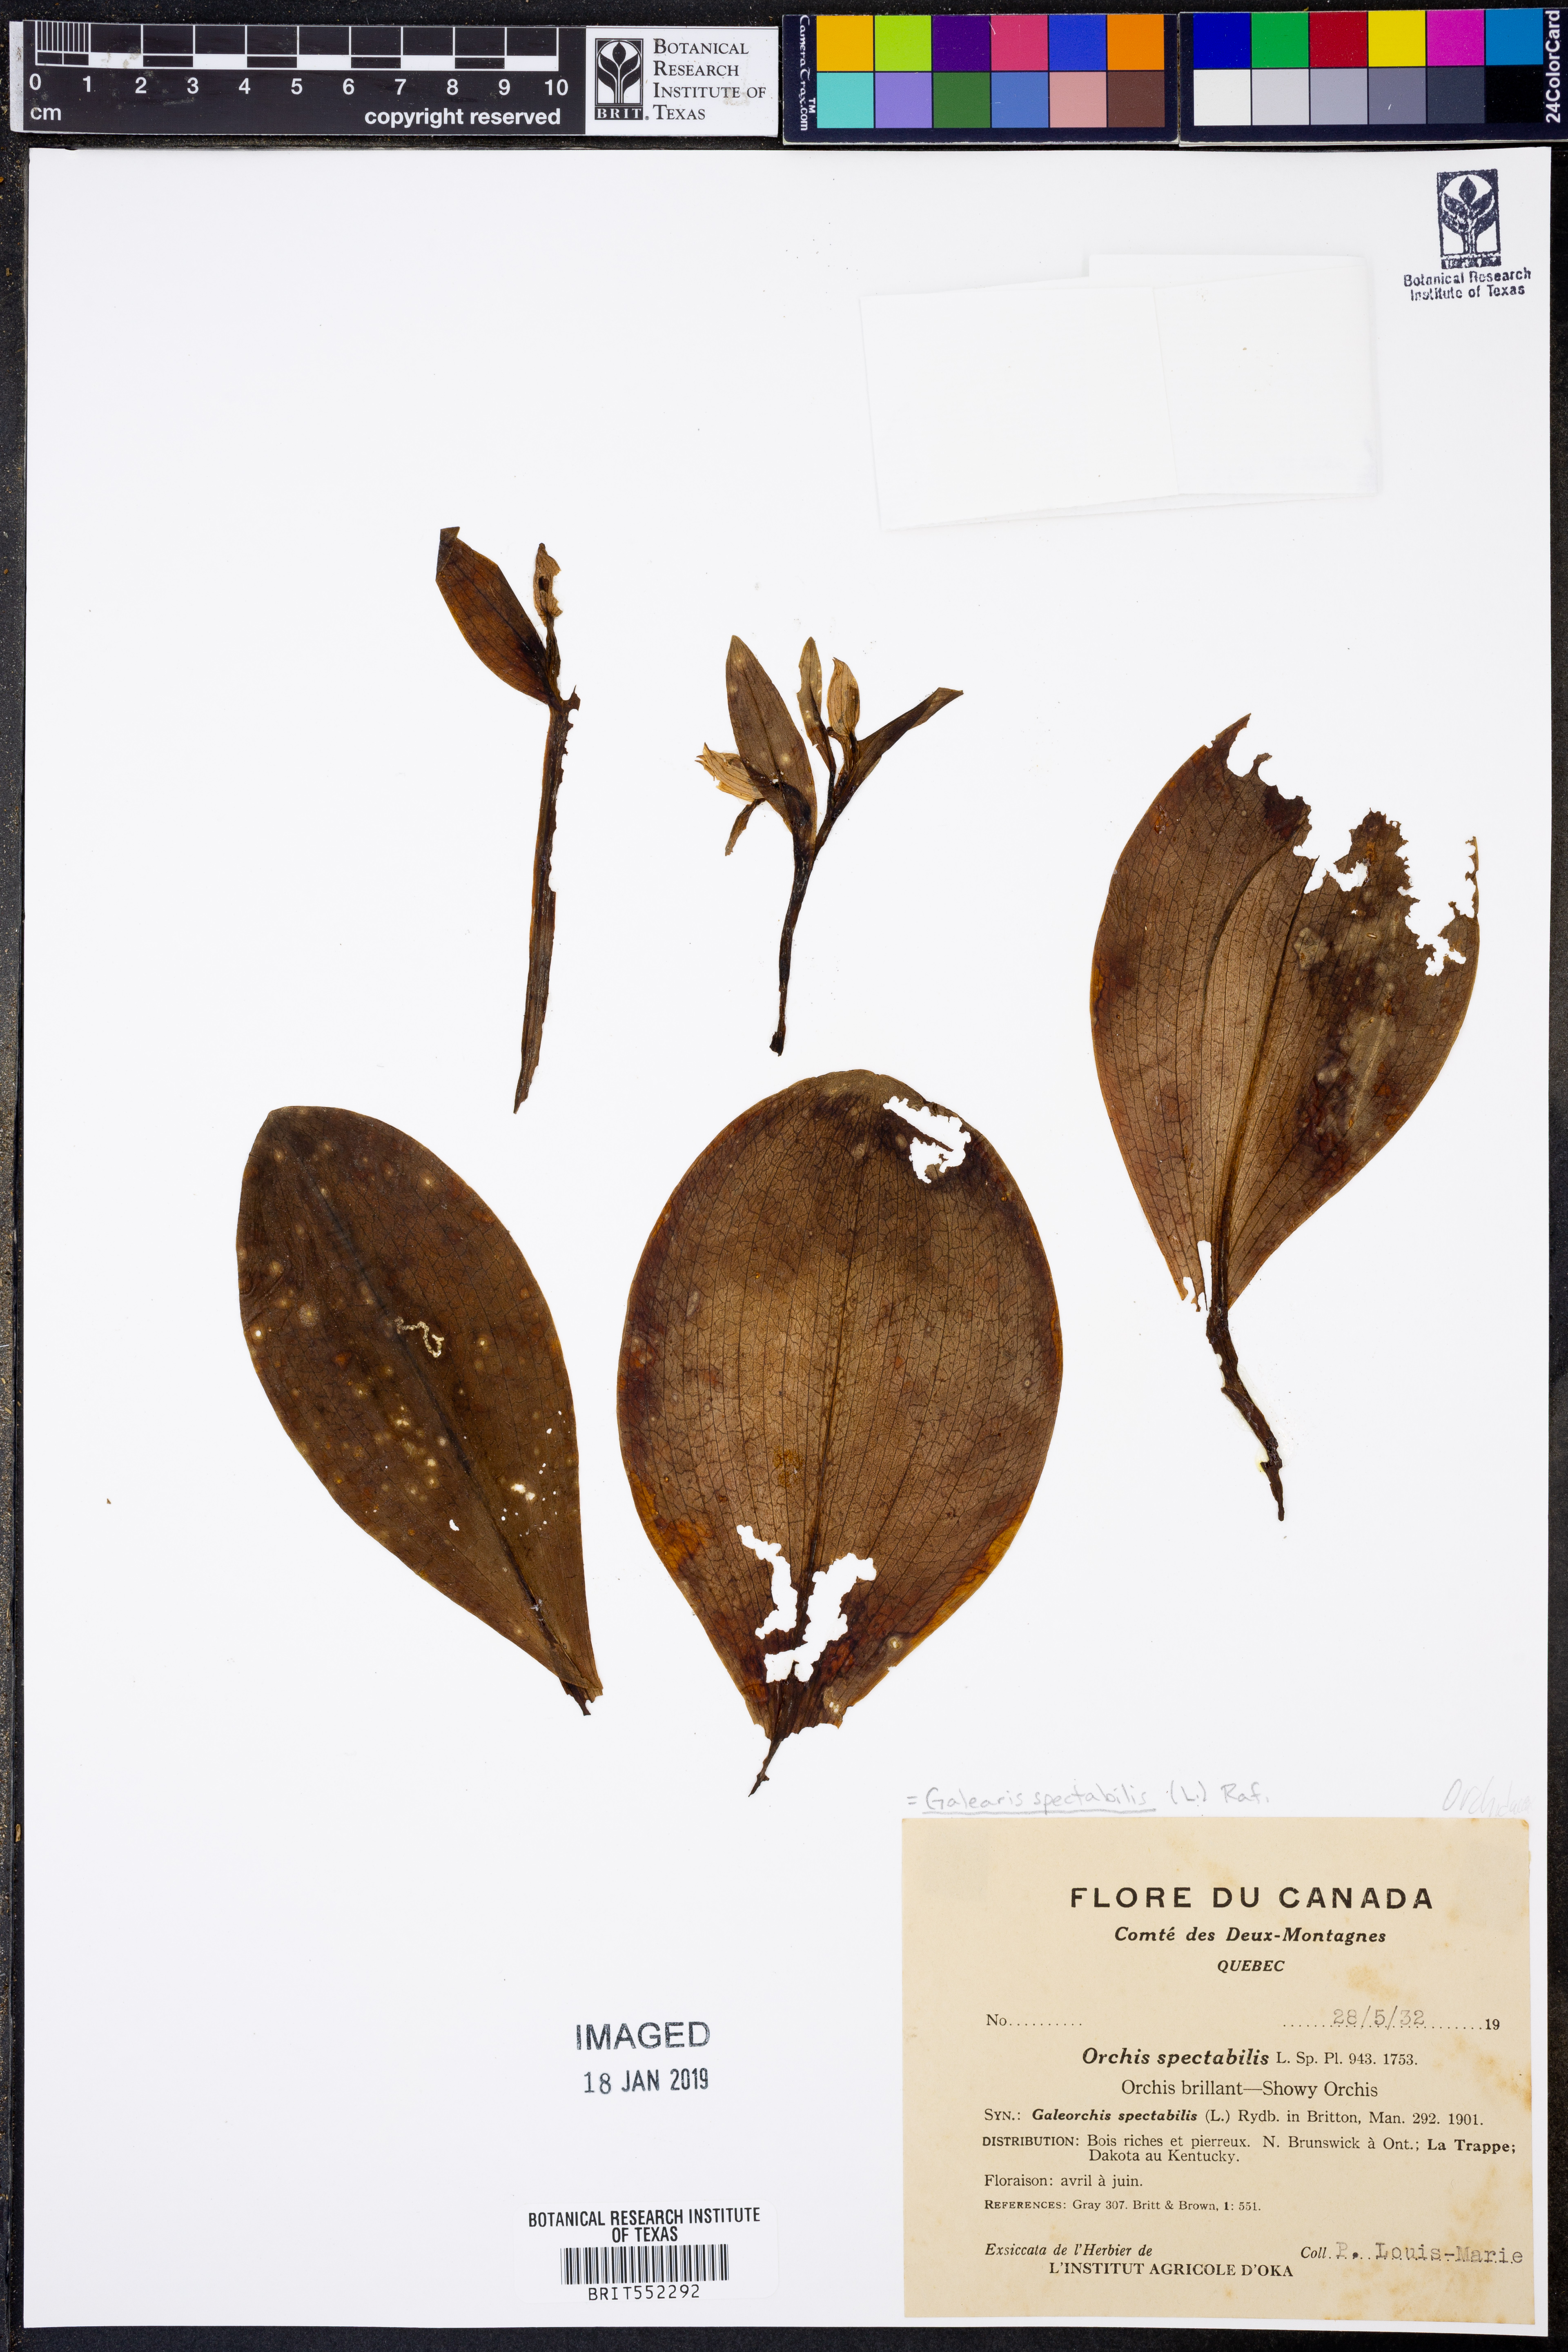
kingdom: Plantae
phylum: Tracheophyta
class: Liliopsida
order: Asparagales
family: Orchidaceae
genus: Galearis
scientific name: Galearis spectabilis
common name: Purple-hooded orchis
